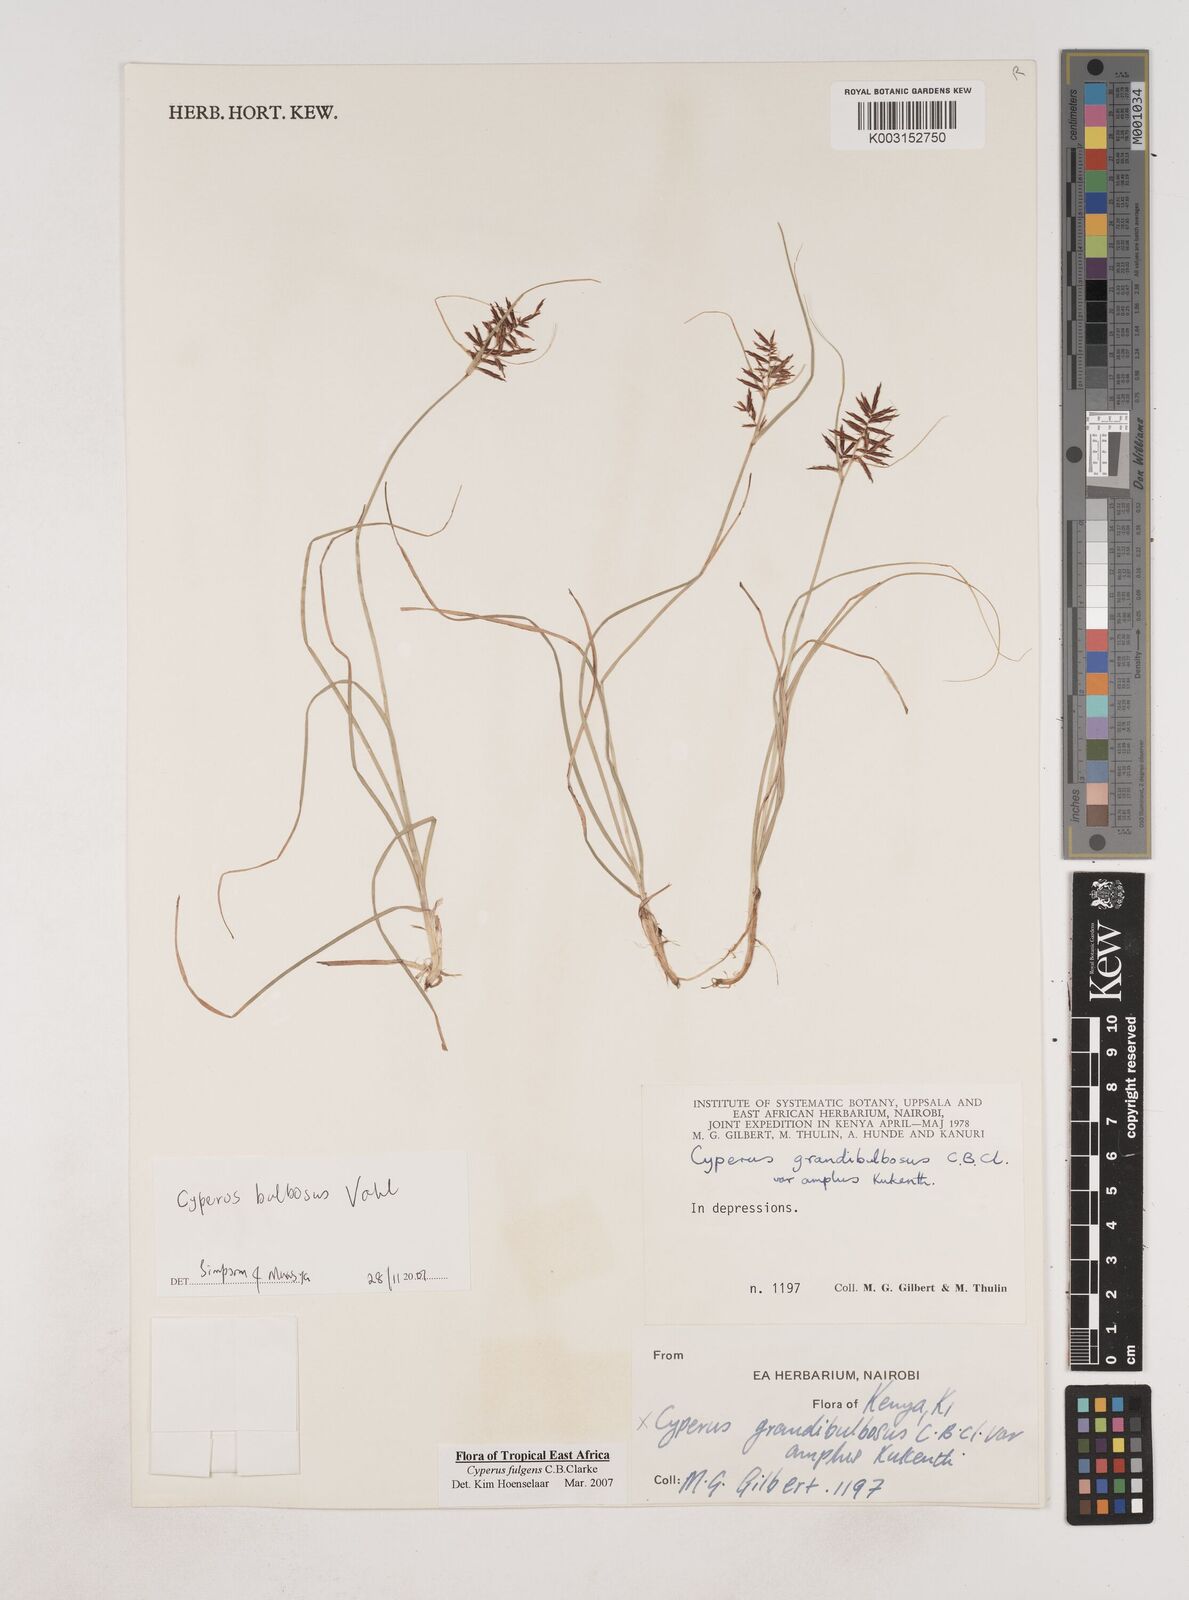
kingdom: Plantae
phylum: Tracheophyta
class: Liliopsida
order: Poales
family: Cyperaceae
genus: Cyperus
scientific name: Cyperus callistus
